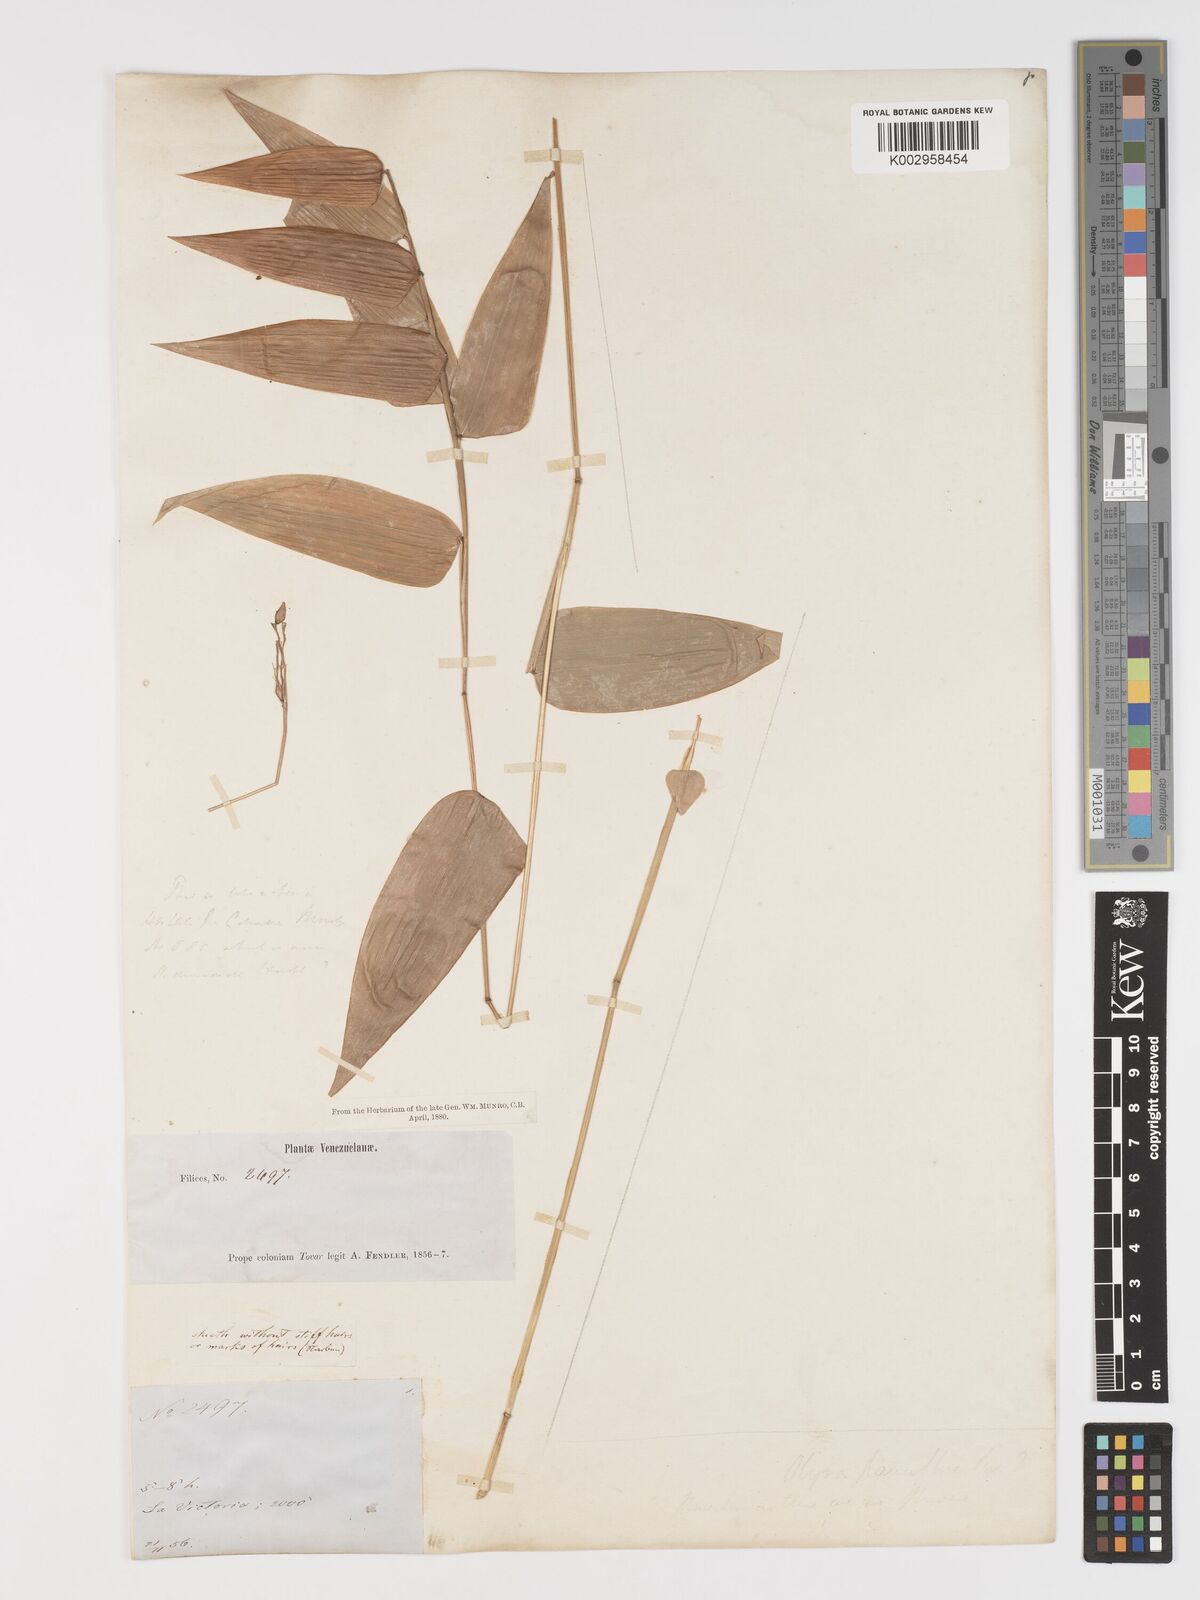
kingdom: Plantae
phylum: Tracheophyta
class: Liliopsida
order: Poales
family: Poaceae
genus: Lithachne
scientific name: Lithachne pauciflora
